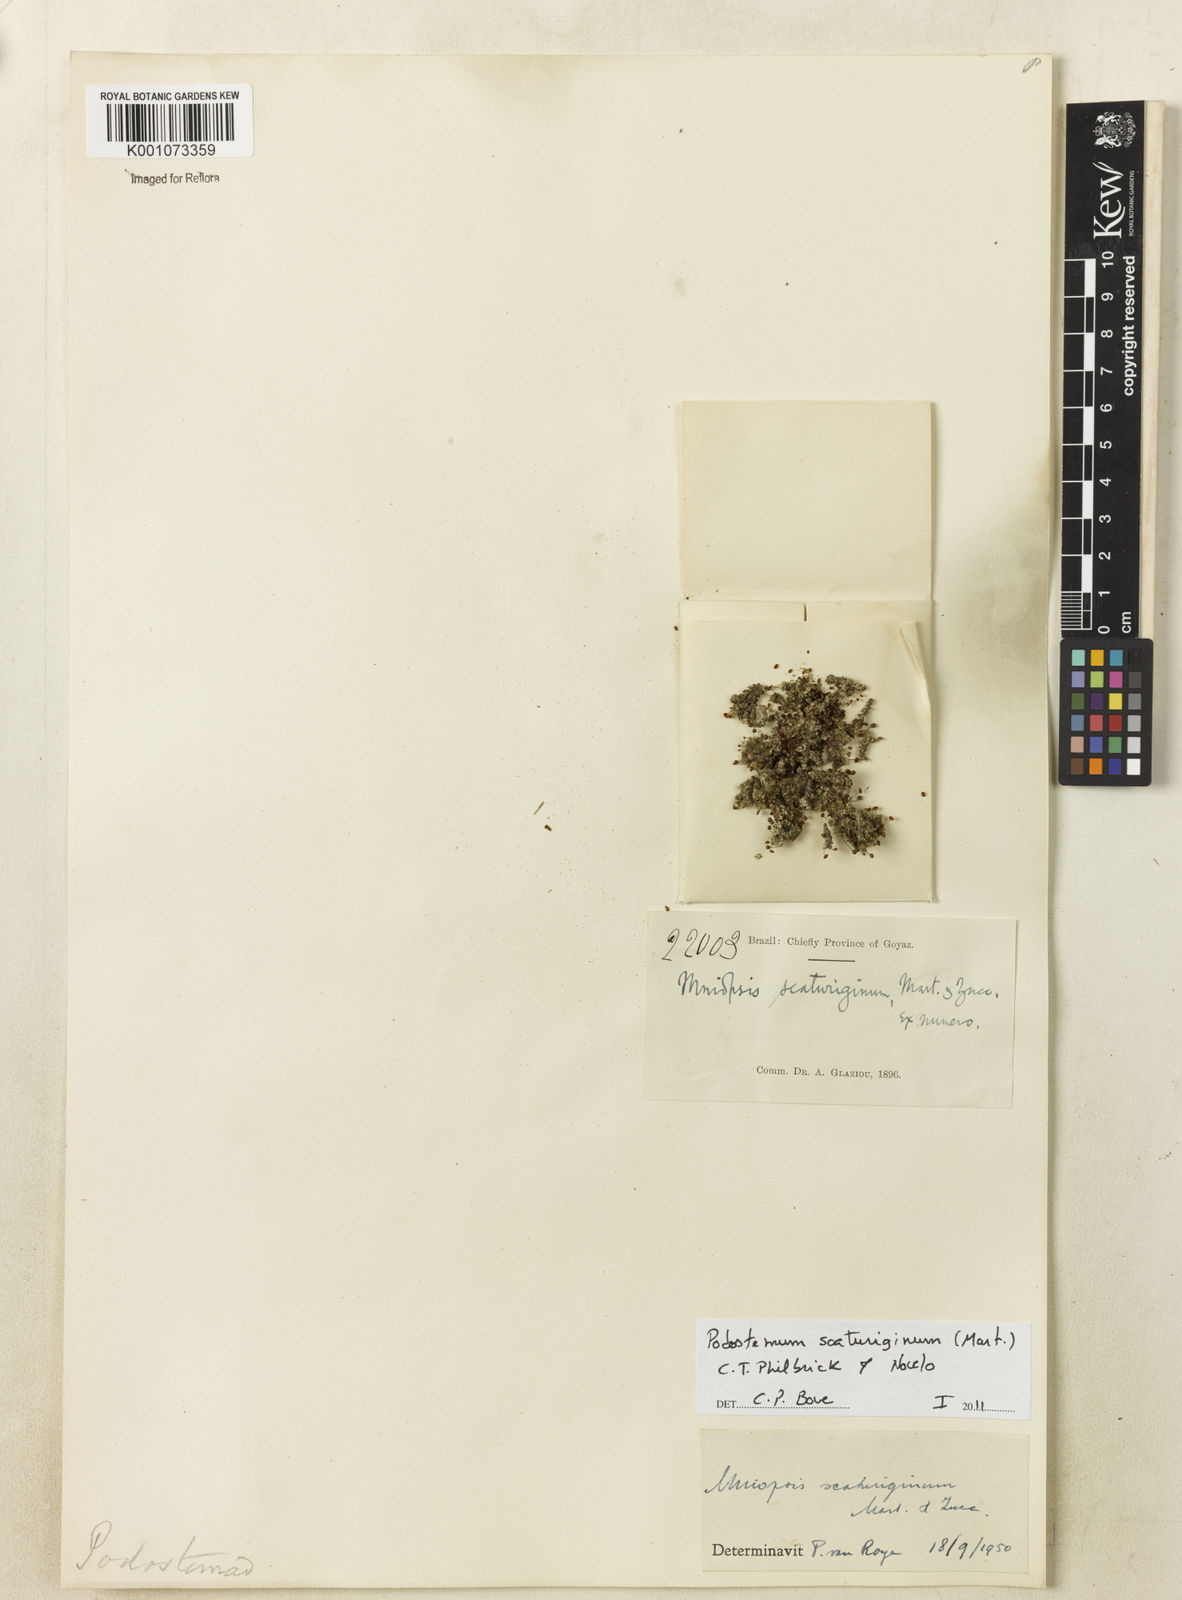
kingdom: Plantae
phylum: Tracheophyta
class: Magnoliopsida
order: Malpighiales
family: Podostemaceae
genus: Podostemum
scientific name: Podostemum scaturiginum
